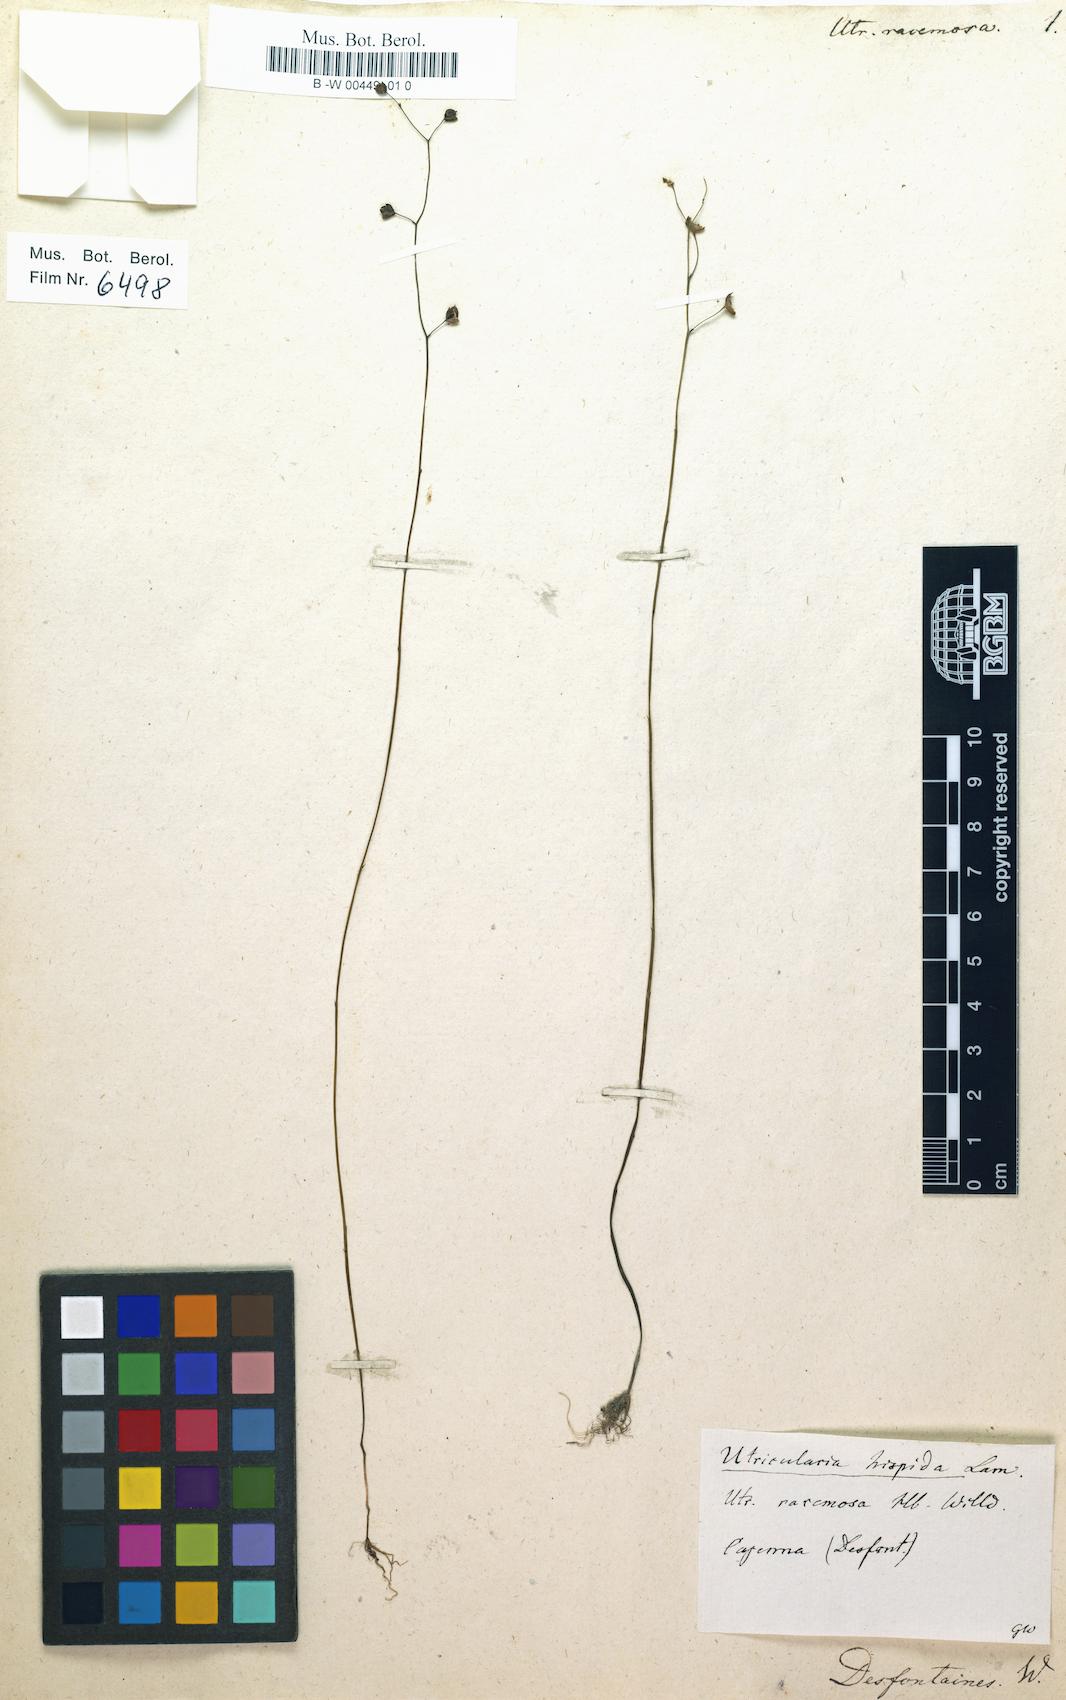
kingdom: Plantae
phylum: Tracheophyta
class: Magnoliopsida
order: Lamiales
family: Lentibulariaceae
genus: Utricularia
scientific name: Utricularia racemosa
